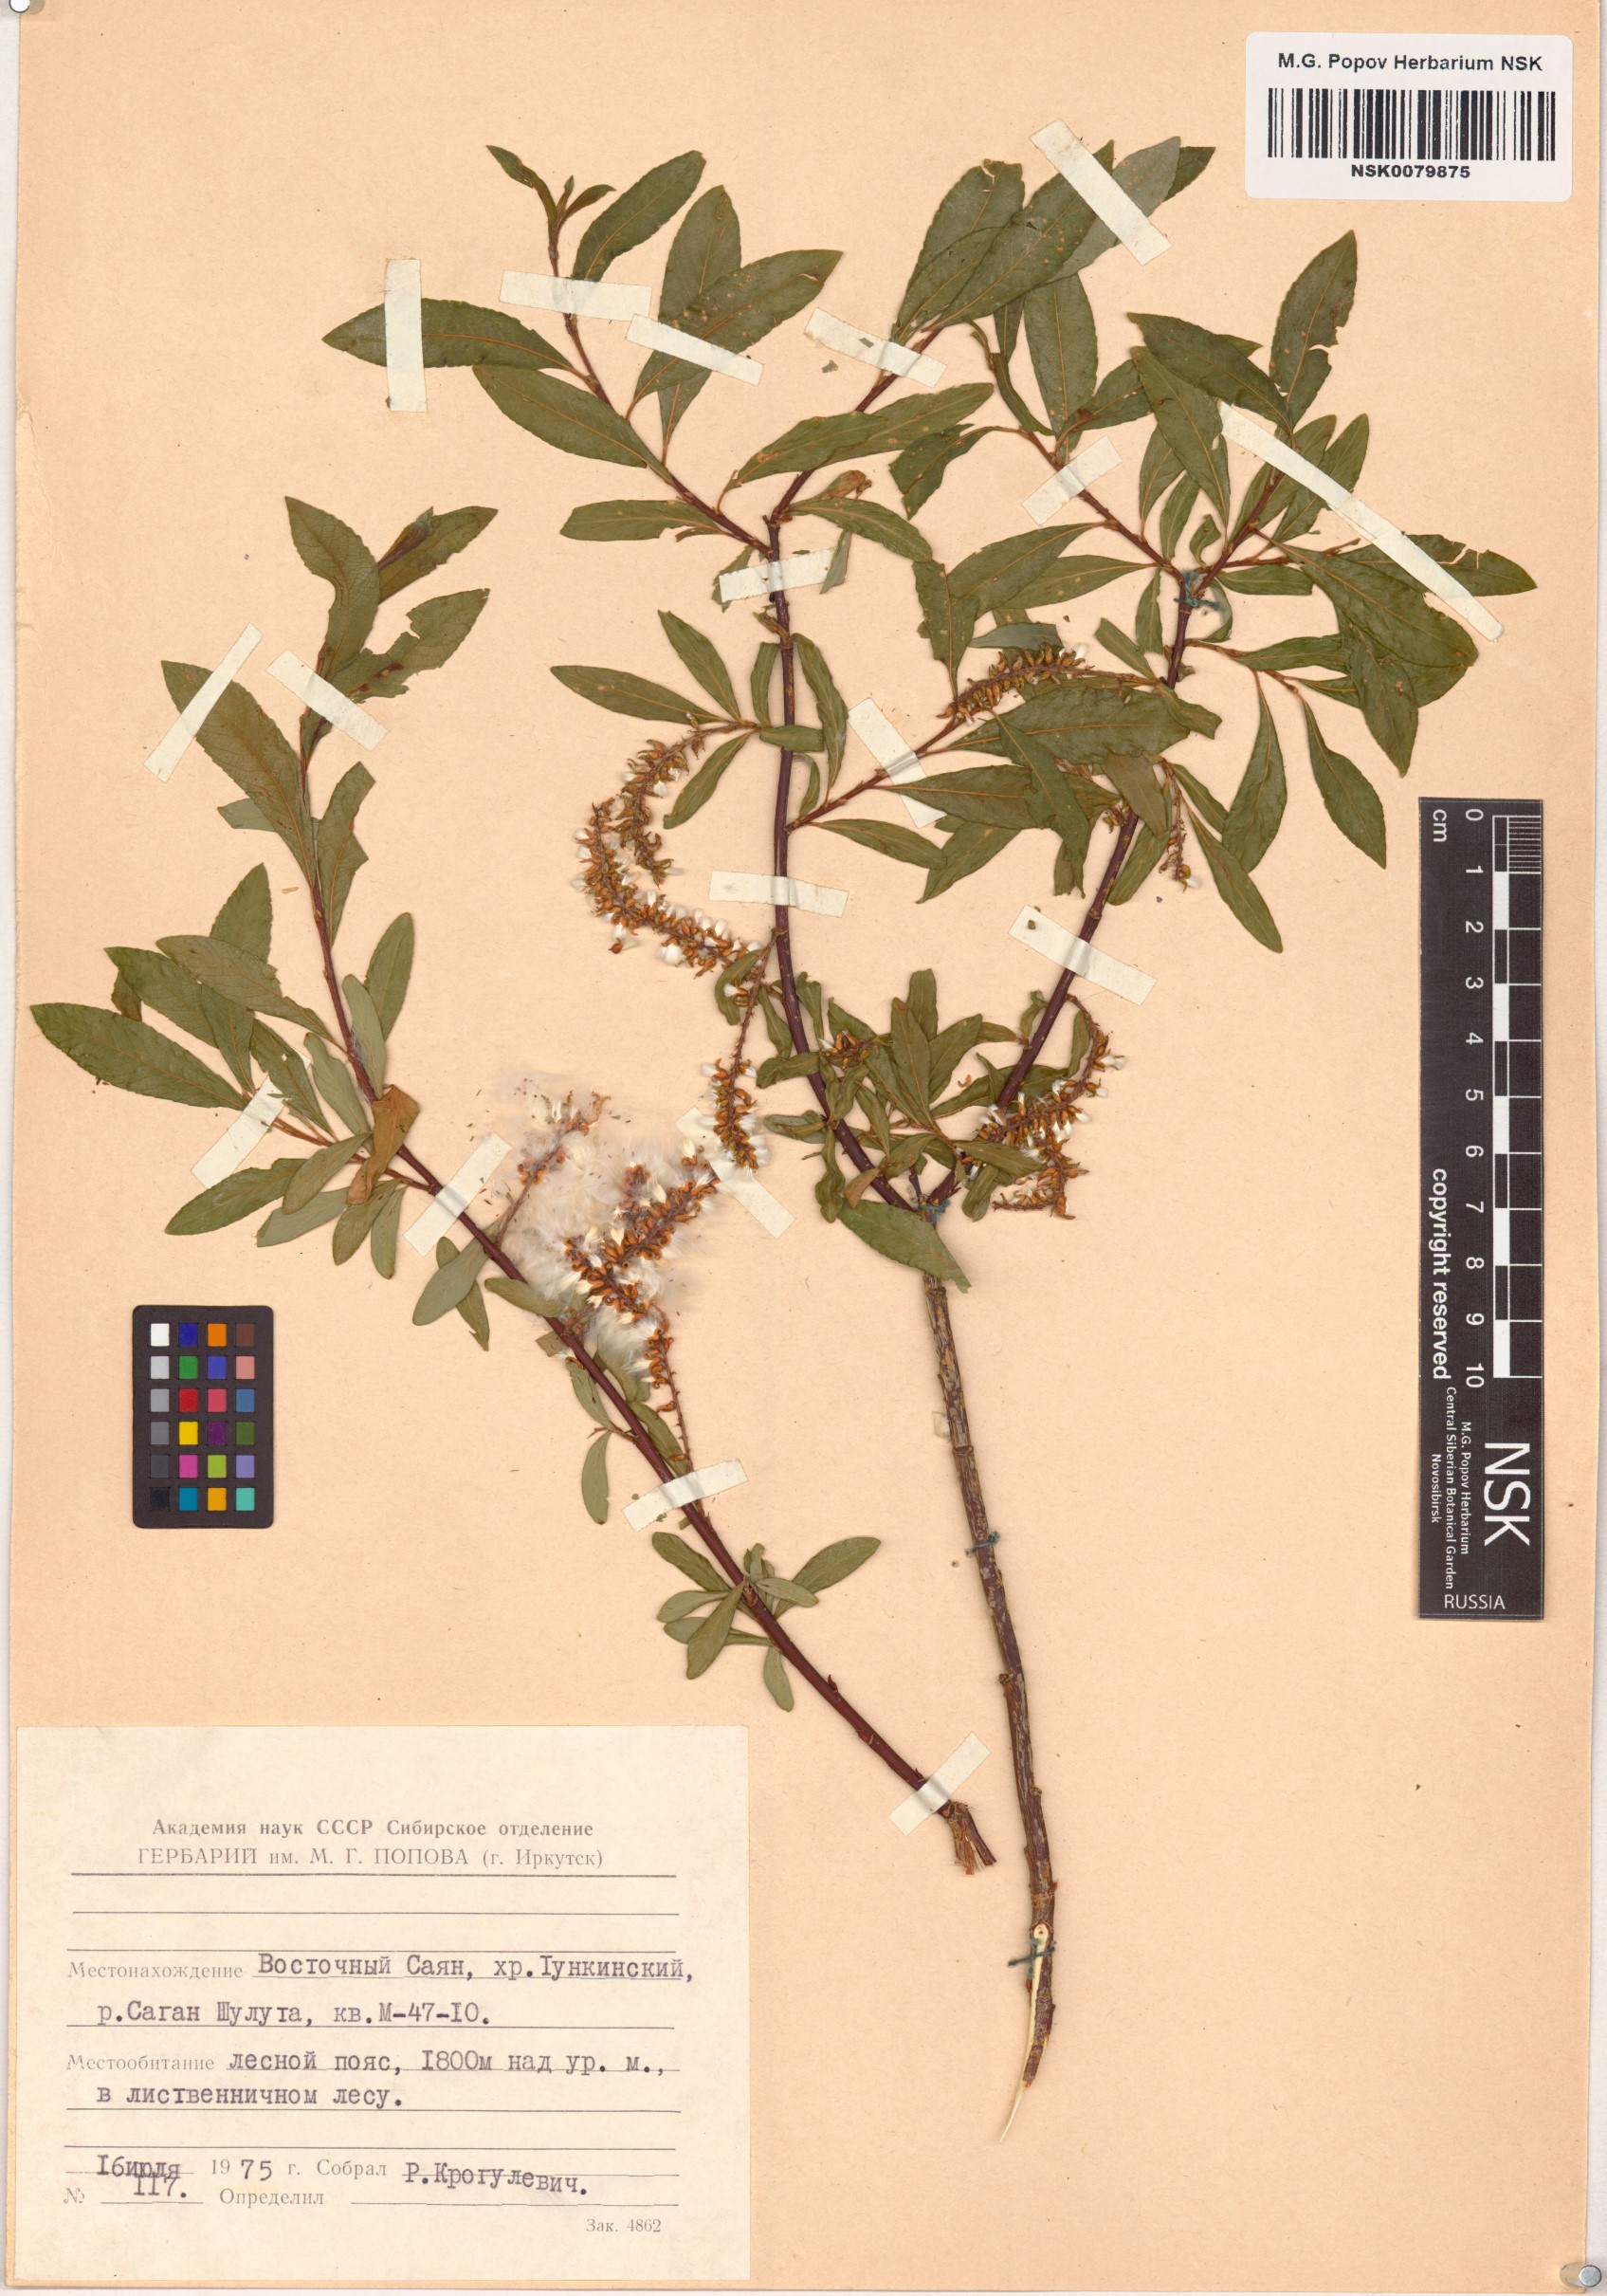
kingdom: Plantae
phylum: Tracheophyta
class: Magnoliopsida
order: Malpighiales
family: Salicaceae
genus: Salix
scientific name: Salix rhamnifolia
